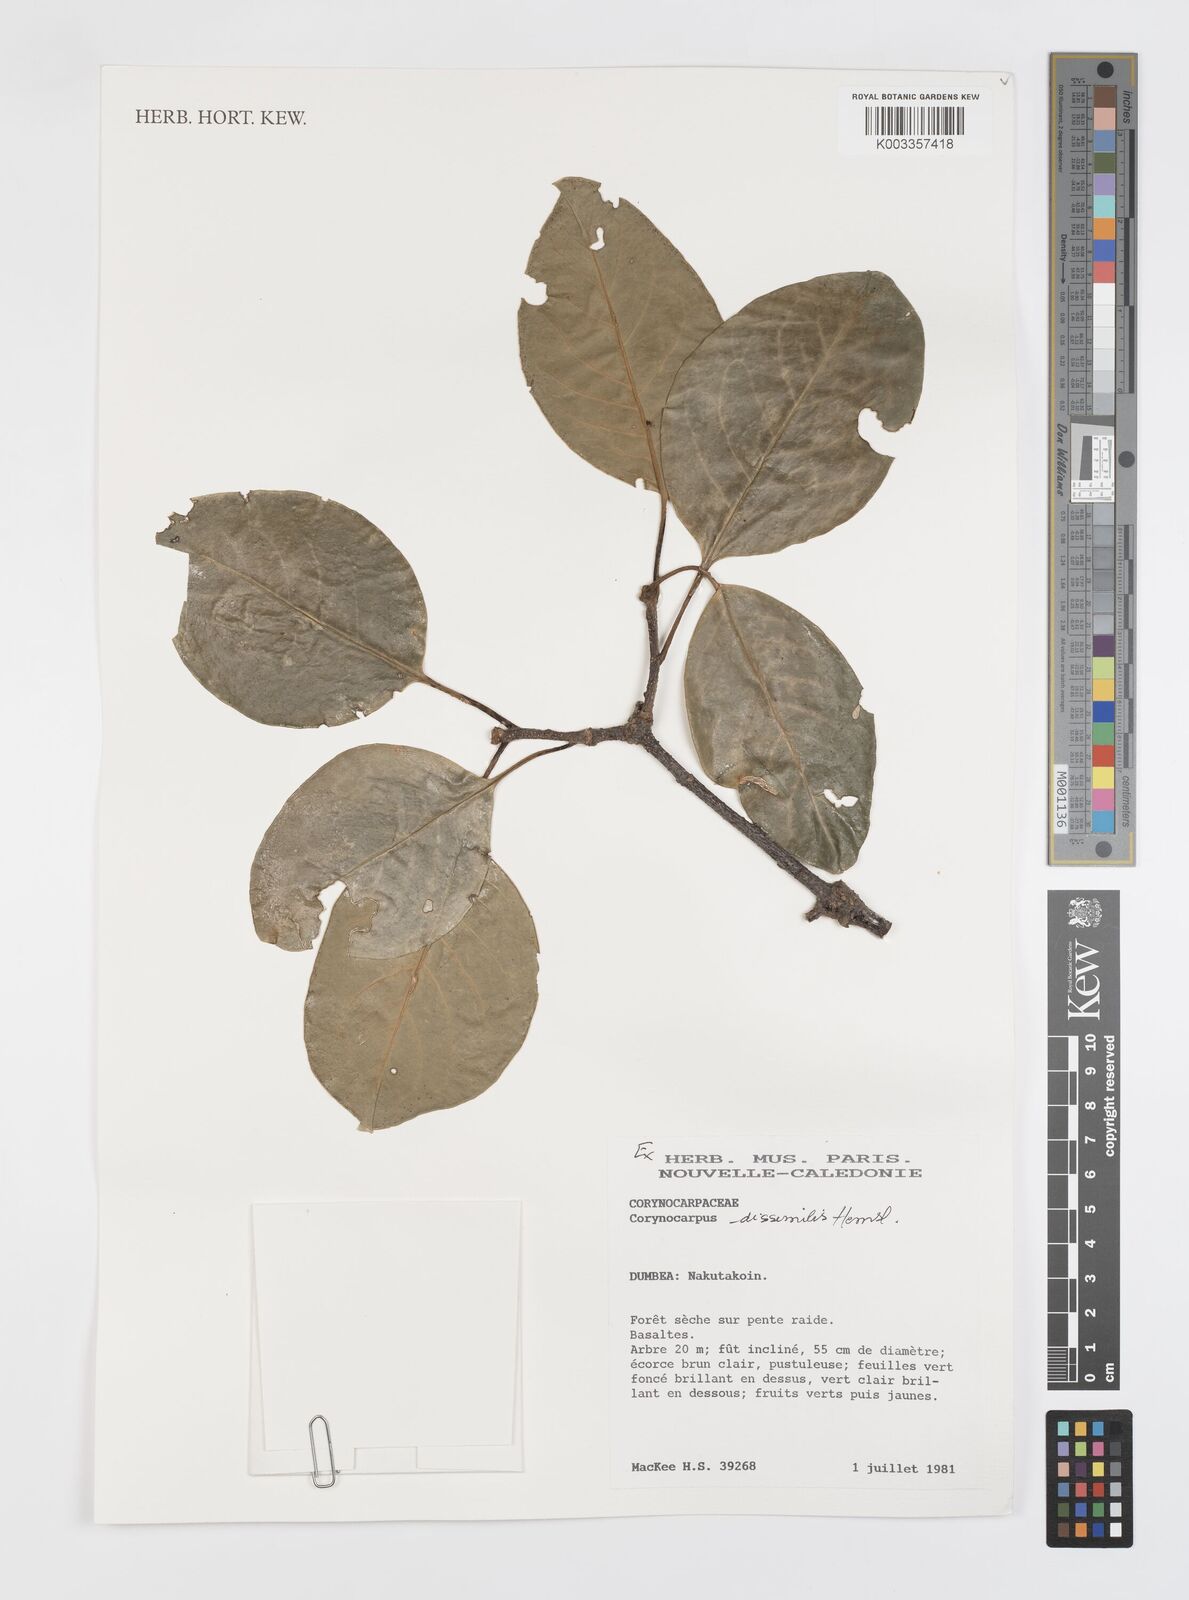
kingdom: Plantae
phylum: Tracheophyta
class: Magnoliopsida
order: Cucurbitales
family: Corynocarpaceae
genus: Corynocarpus
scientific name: Corynocarpus dissimilis
